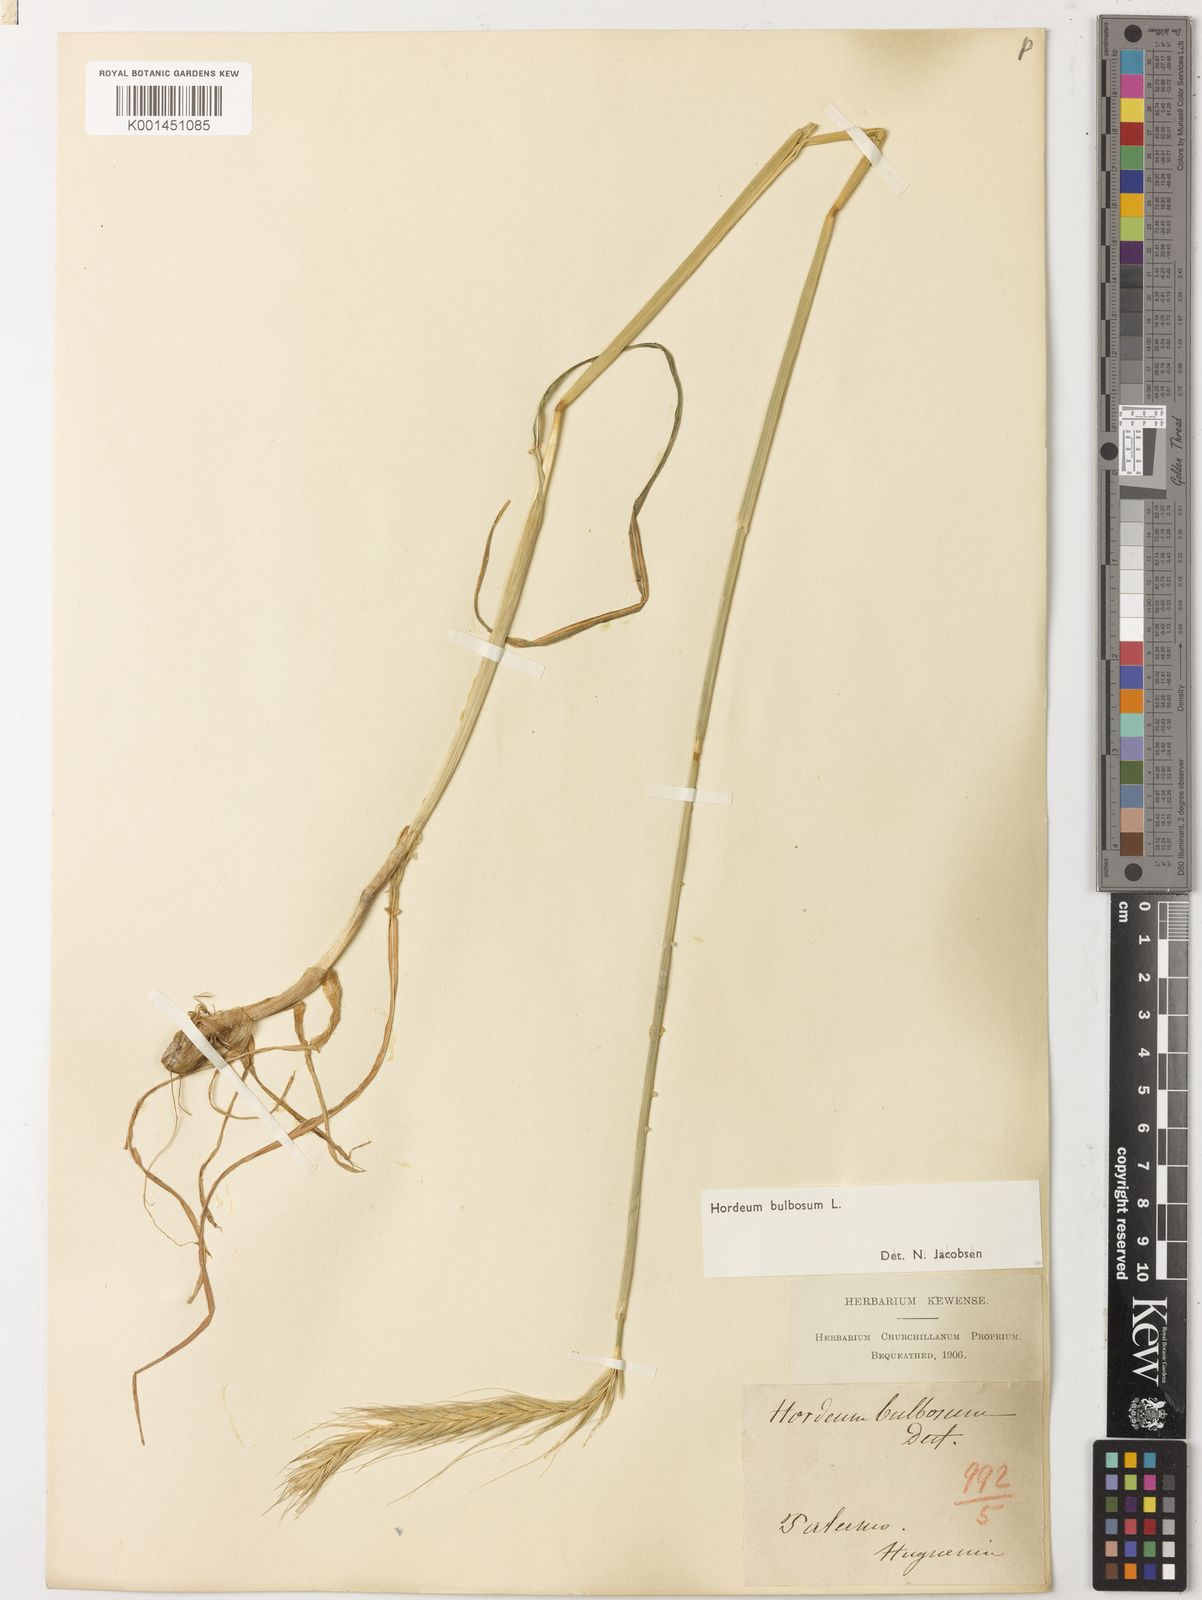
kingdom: Plantae
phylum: Tracheophyta
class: Liliopsida
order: Poales
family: Poaceae
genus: Hordeum
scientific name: Hordeum bulbosum
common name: Bulbous barley
